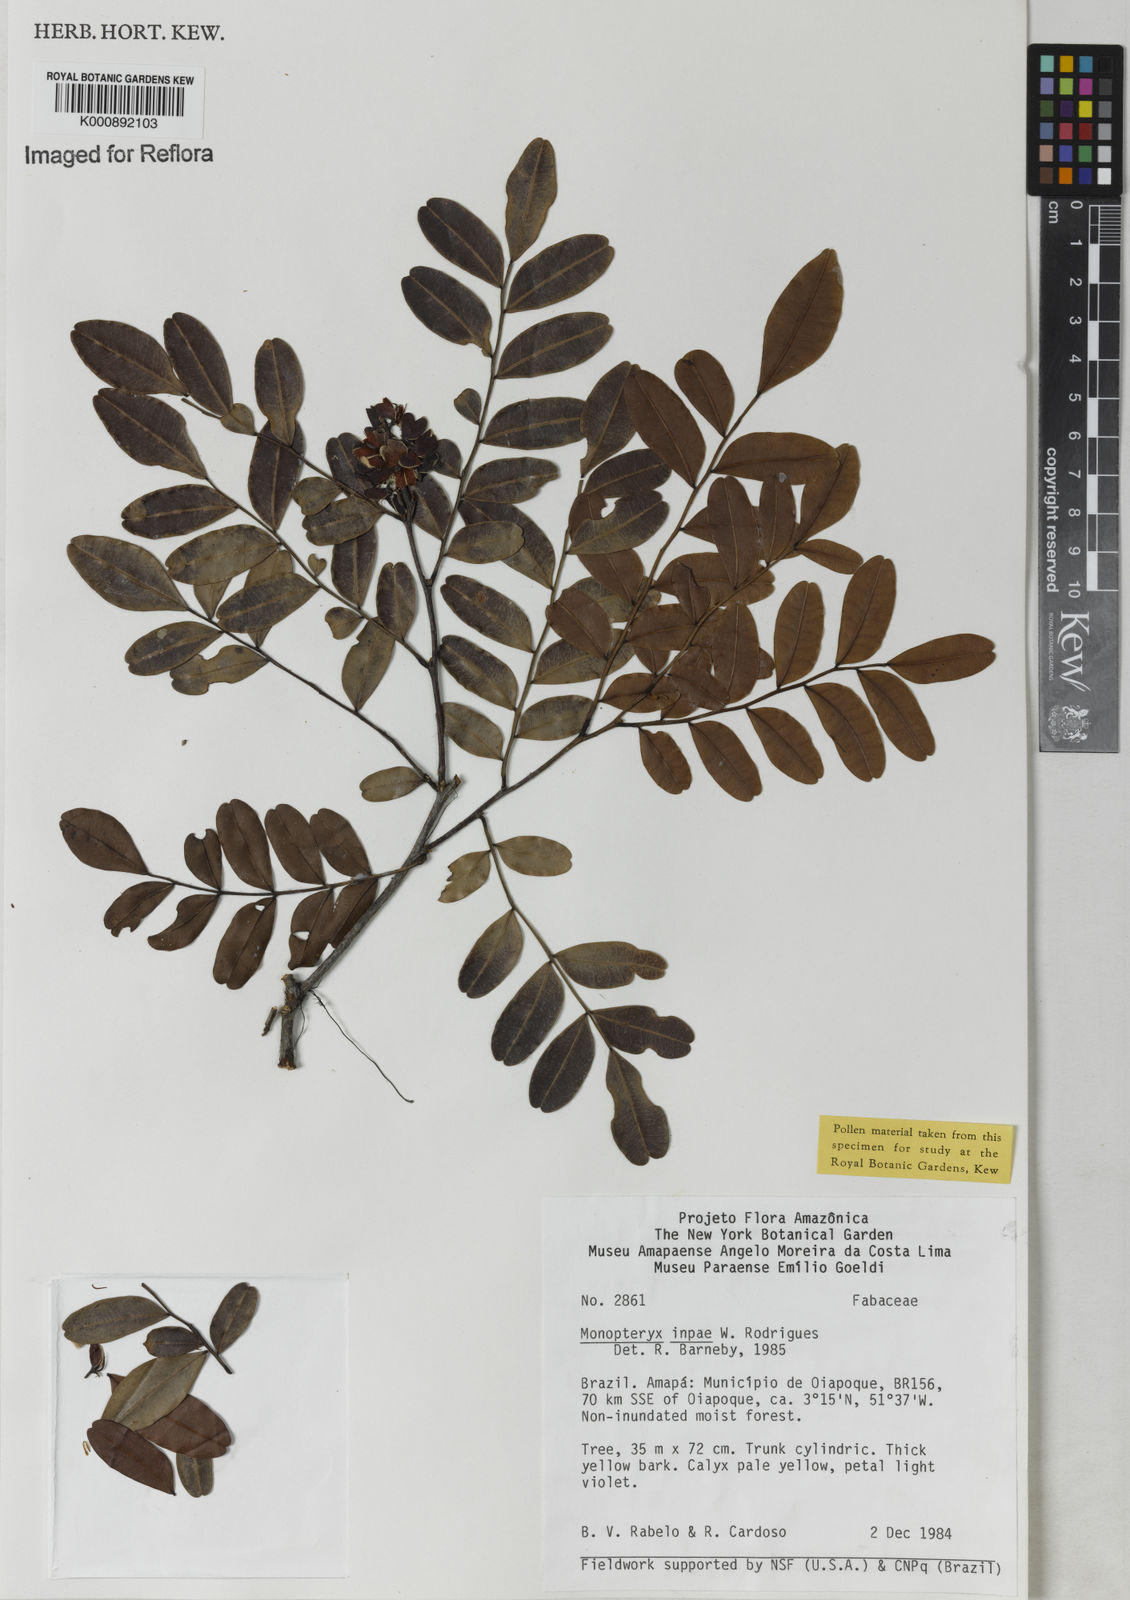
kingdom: Plantae
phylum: Tracheophyta
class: Magnoliopsida
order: Fabales
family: Fabaceae
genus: Monopteryx
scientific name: Monopteryx inpae
